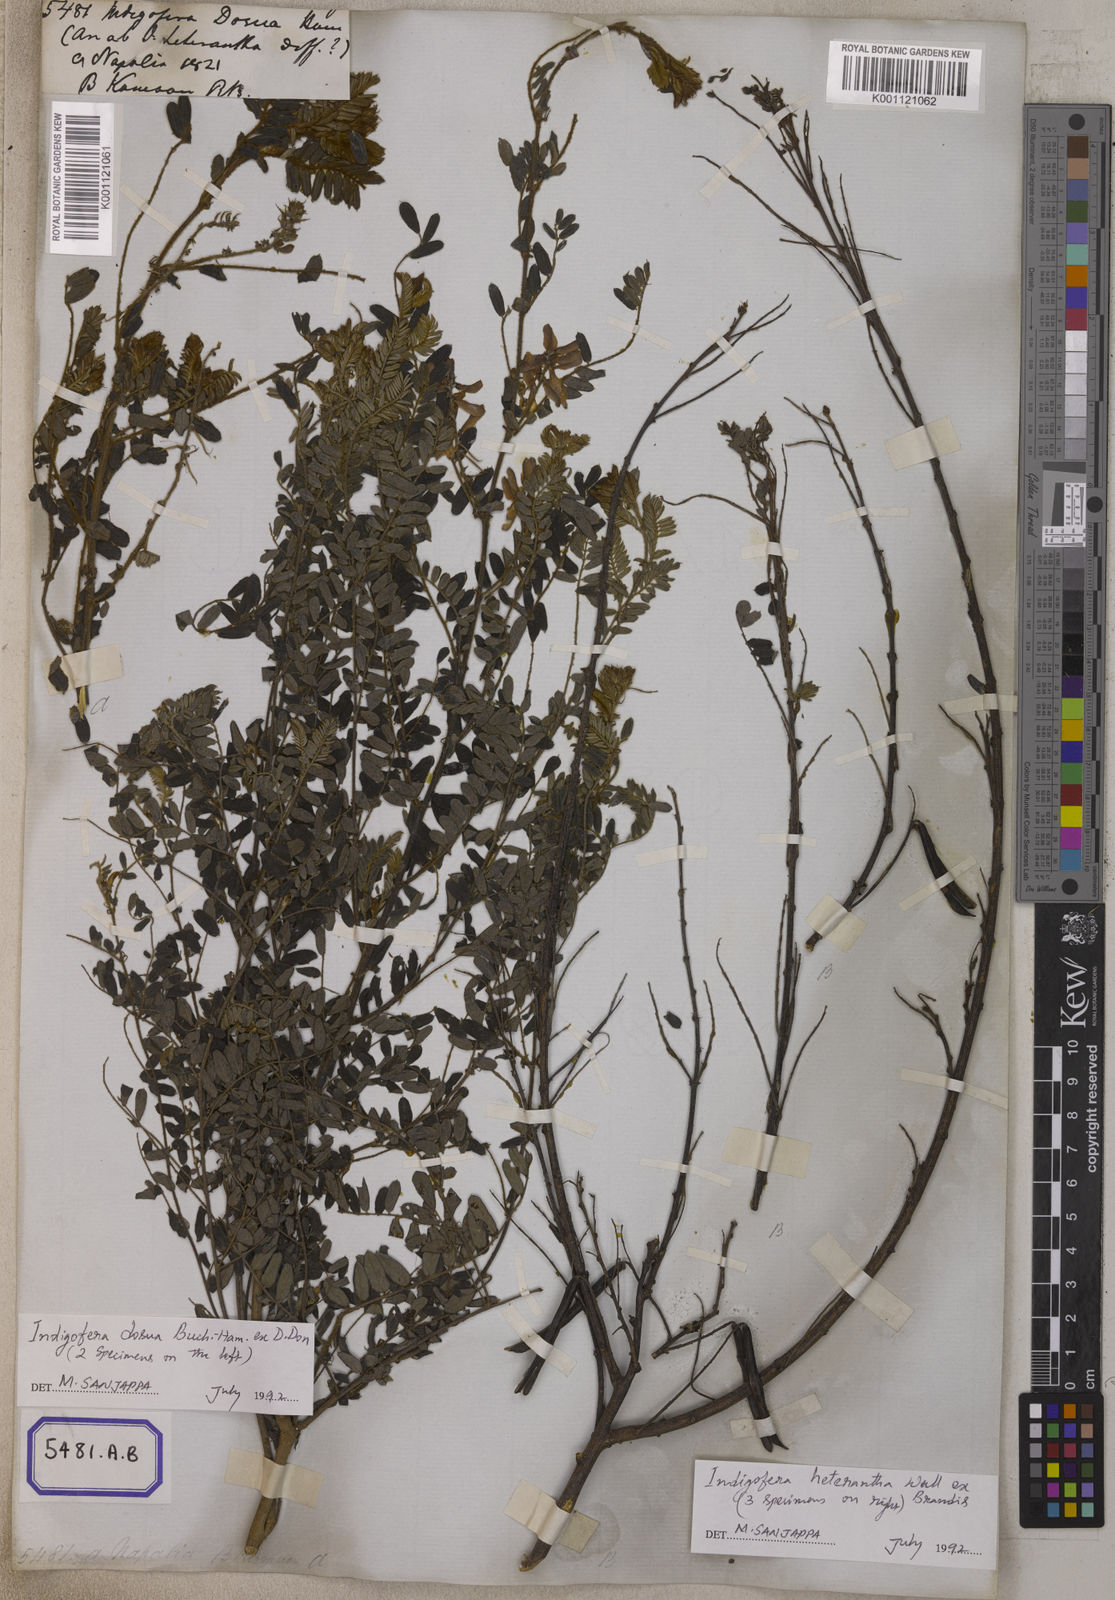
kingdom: Plantae
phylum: Tracheophyta
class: Magnoliopsida
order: Fabales
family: Fabaceae
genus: Indigofera
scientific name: Indigofera
